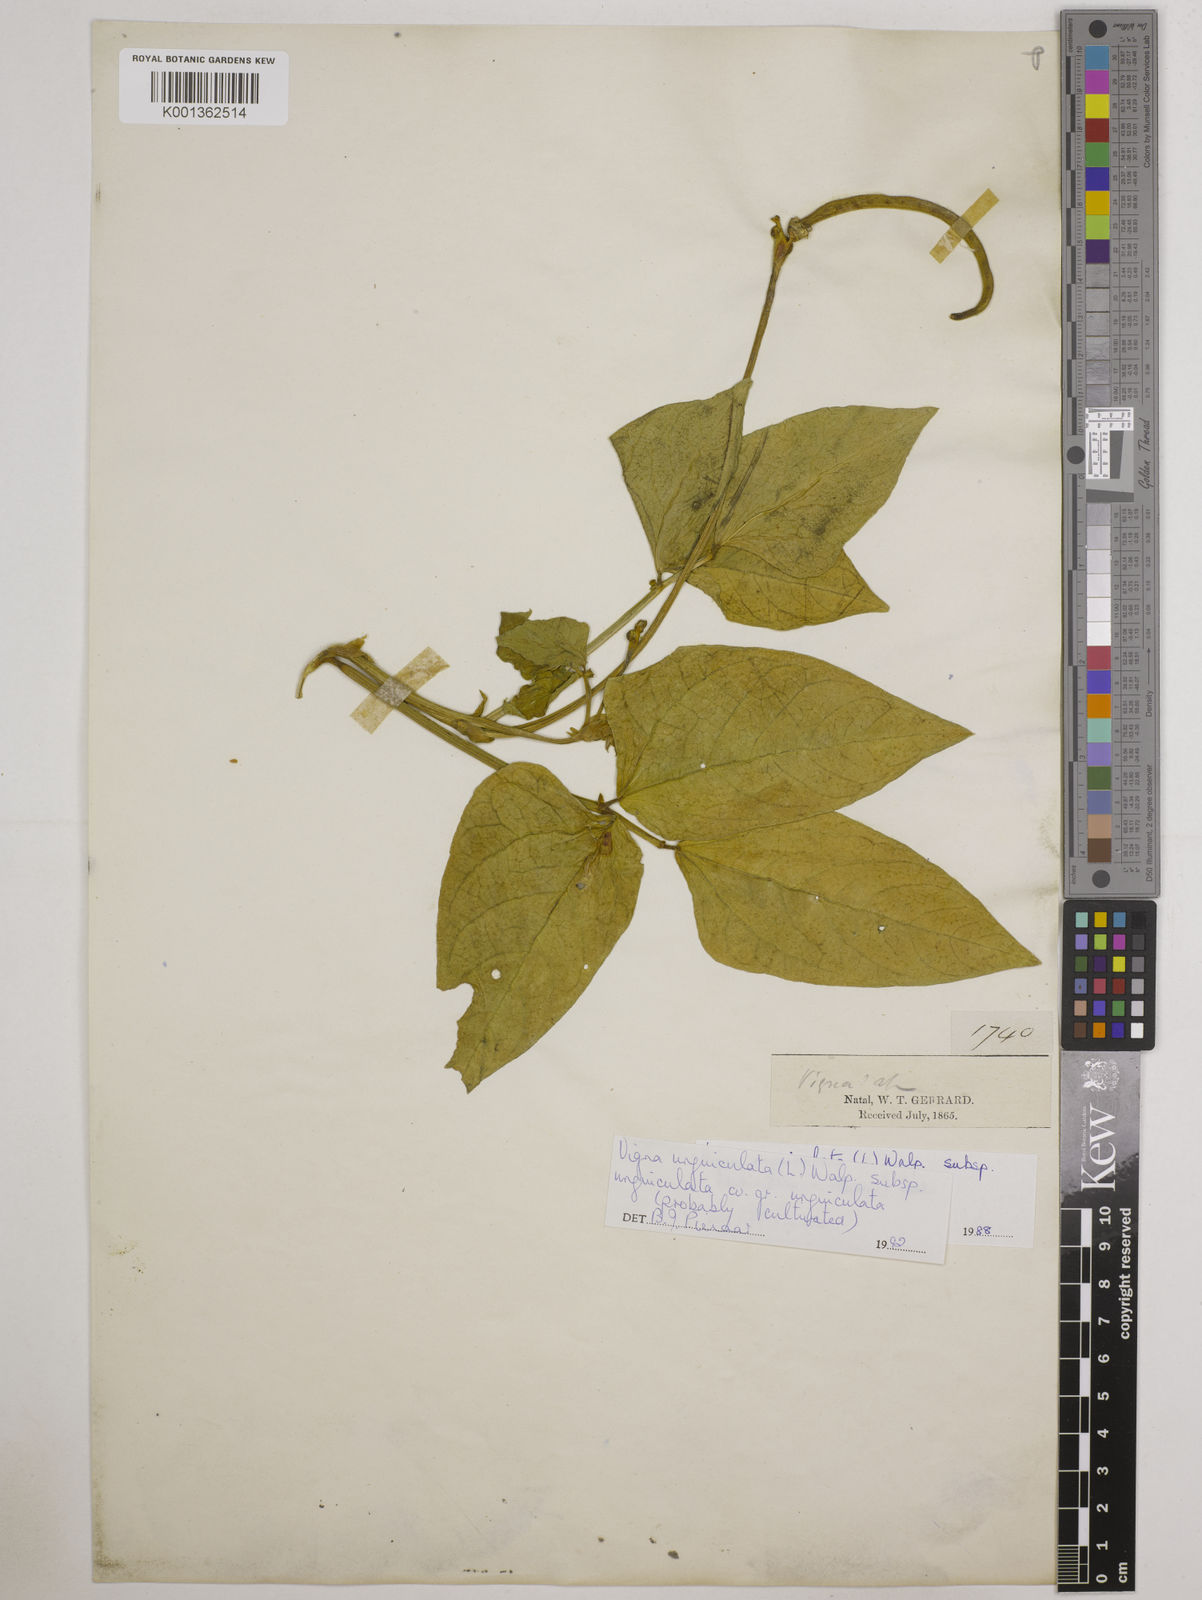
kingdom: Plantae
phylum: Tracheophyta
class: Magnoliopsida
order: Fabales
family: Fabaceae
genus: Vigna
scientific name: Vigna unguiculata
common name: Cowpea
